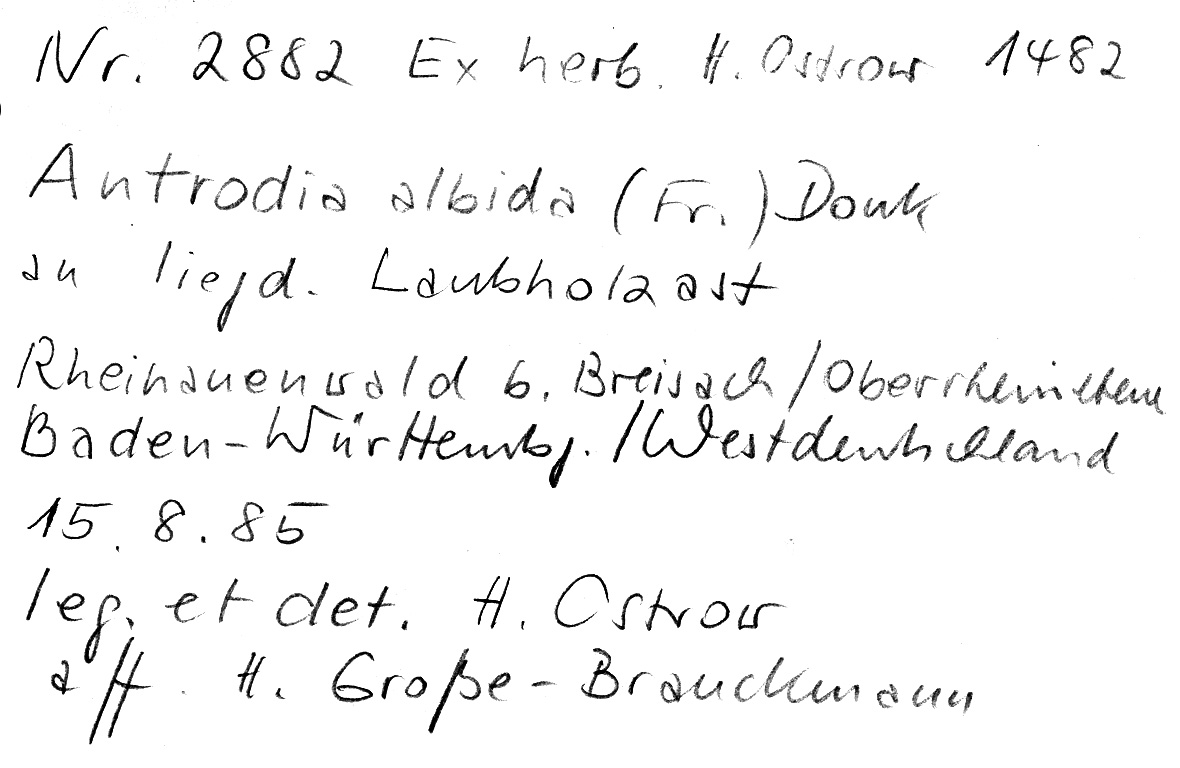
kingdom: Fungi
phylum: Basidiomycota
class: Agaricomycetes
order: Polyporales
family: Fomitopsidaceae
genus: Antrodia
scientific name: Antrodia albida
